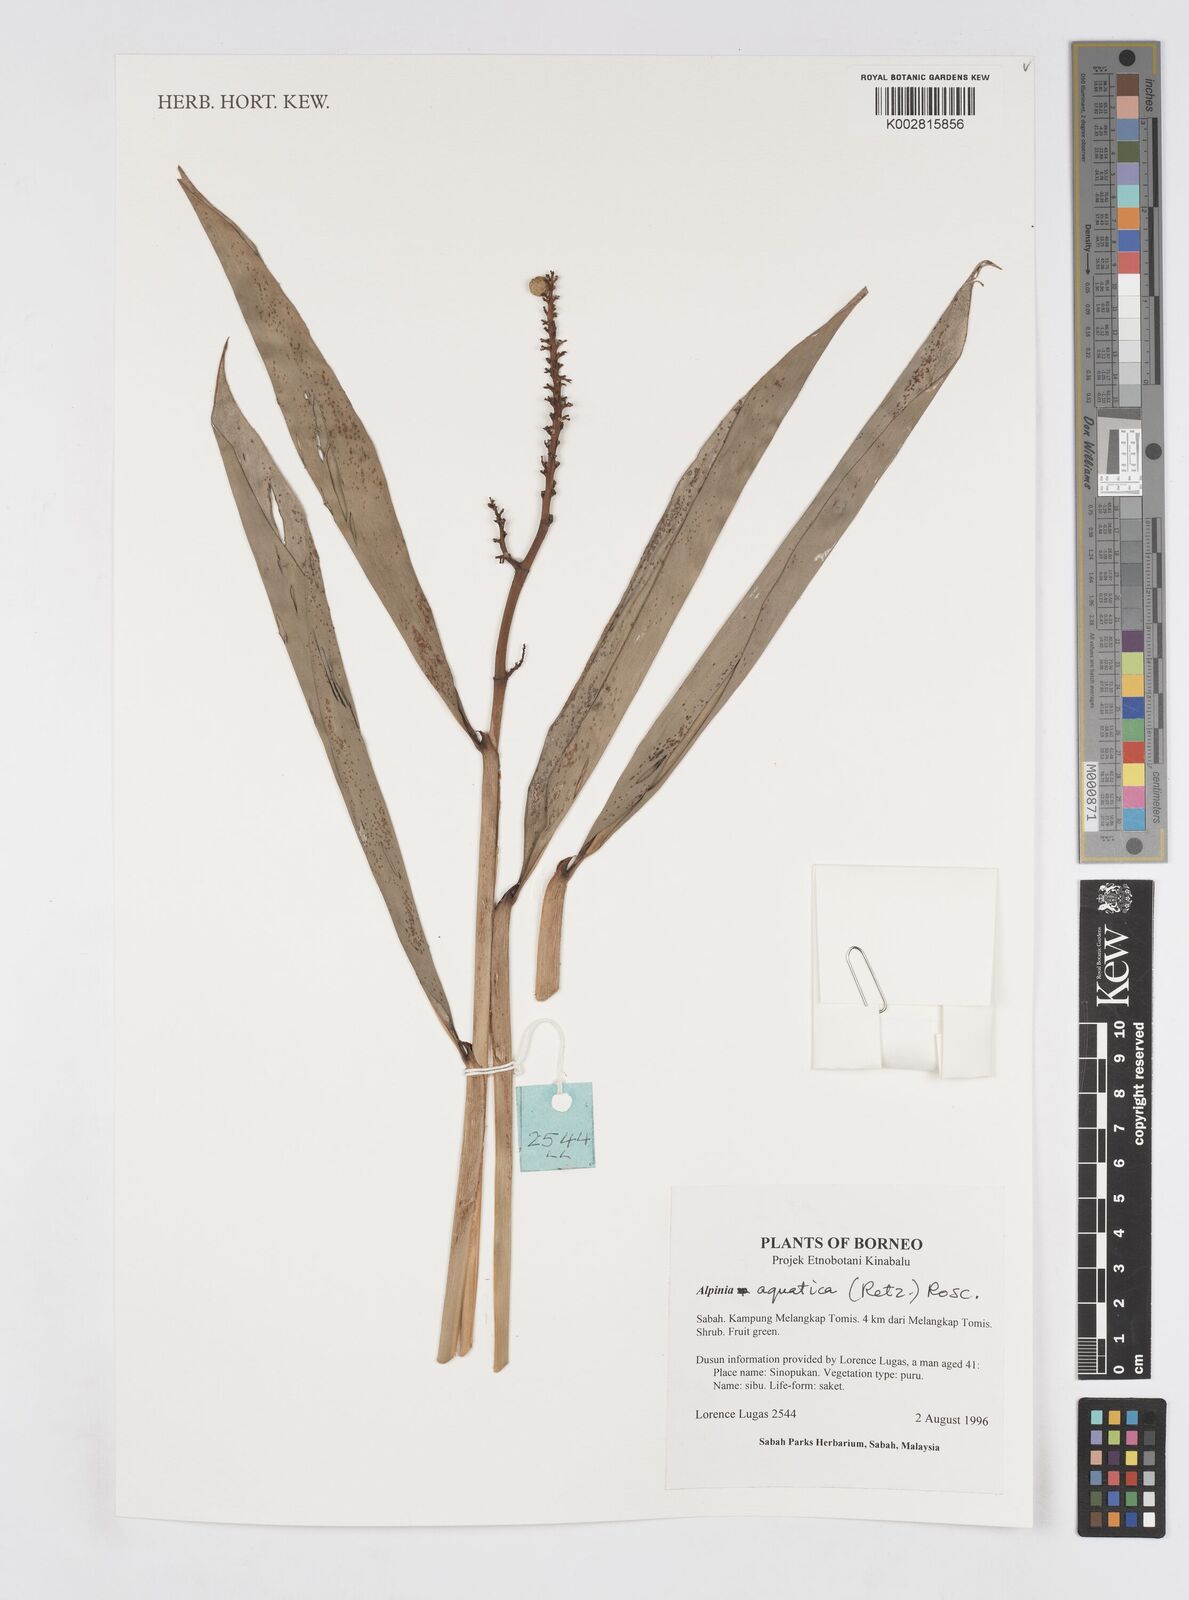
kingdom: Plantae
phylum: Tracheophyta
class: Liliopsida
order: Zingiberales
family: Zingiberaceae
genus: Alpinia
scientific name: Alpinia aquatica
